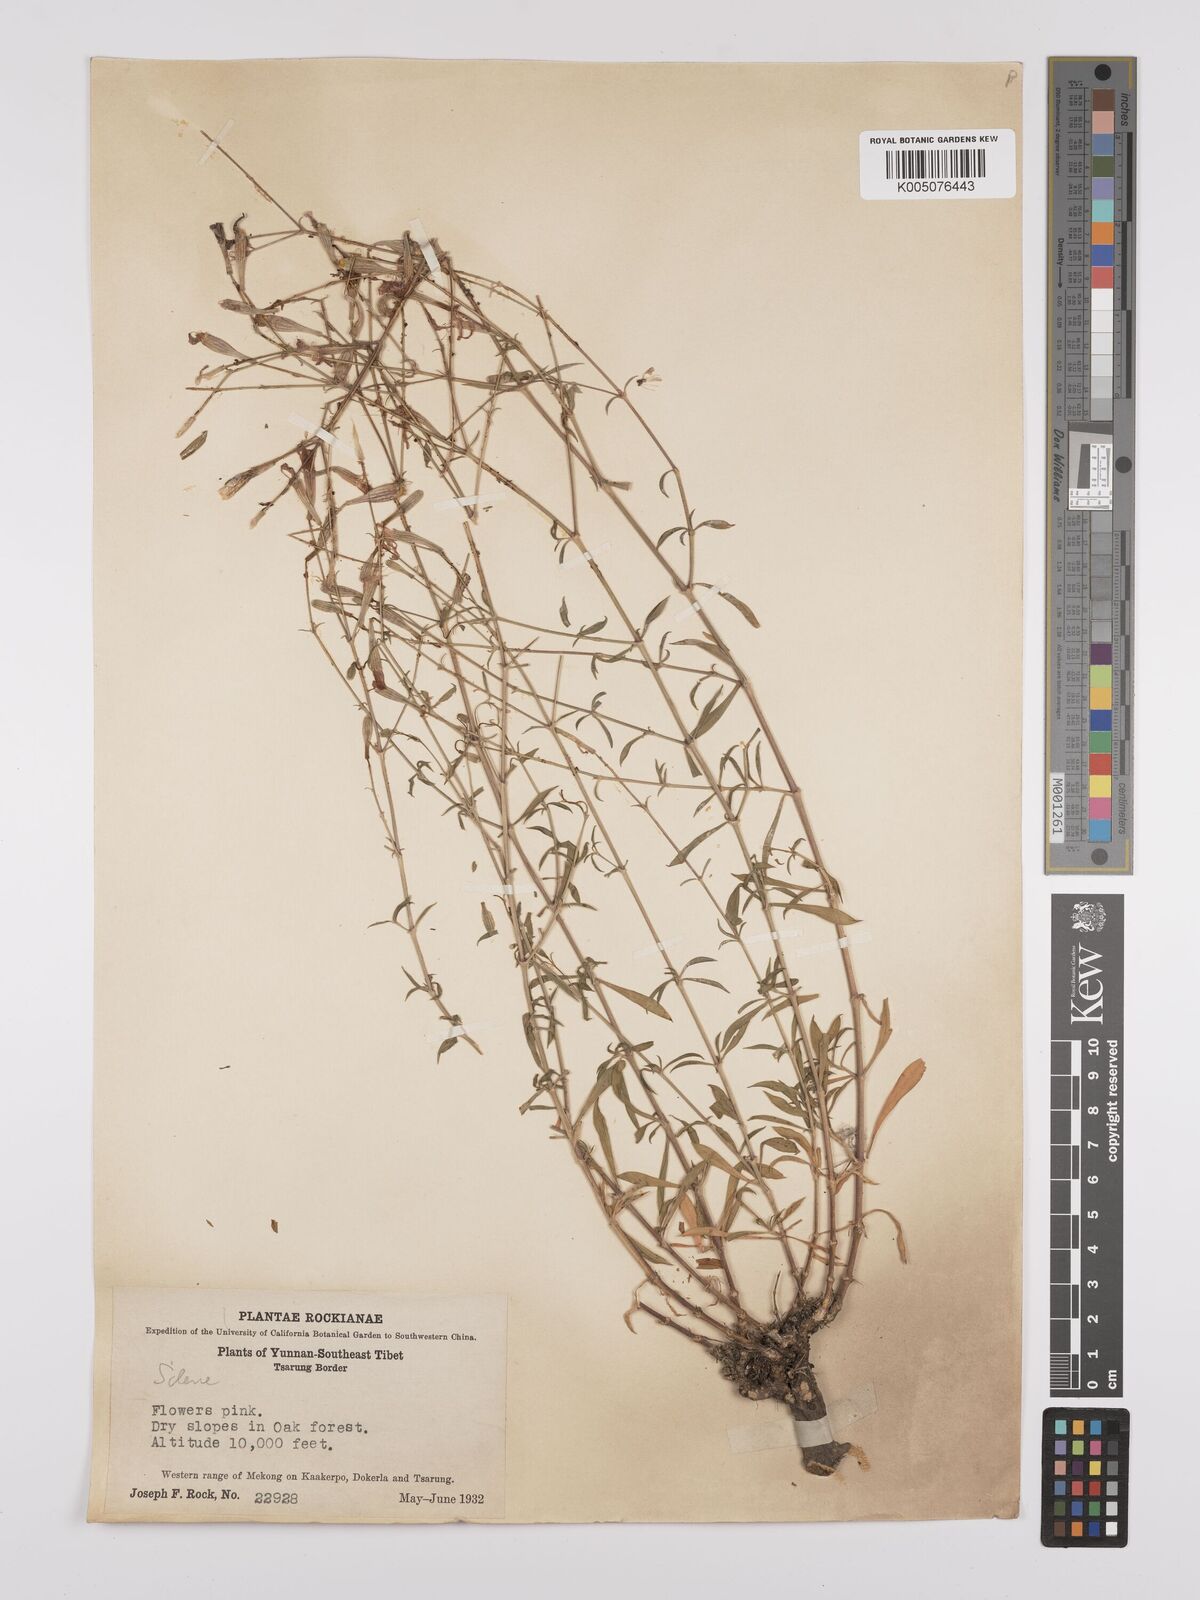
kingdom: Plantae
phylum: Tracheophyta
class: Magnoliopsida
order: Caryophyllales
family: Caryophyllaceae
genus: Silene
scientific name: Silene
